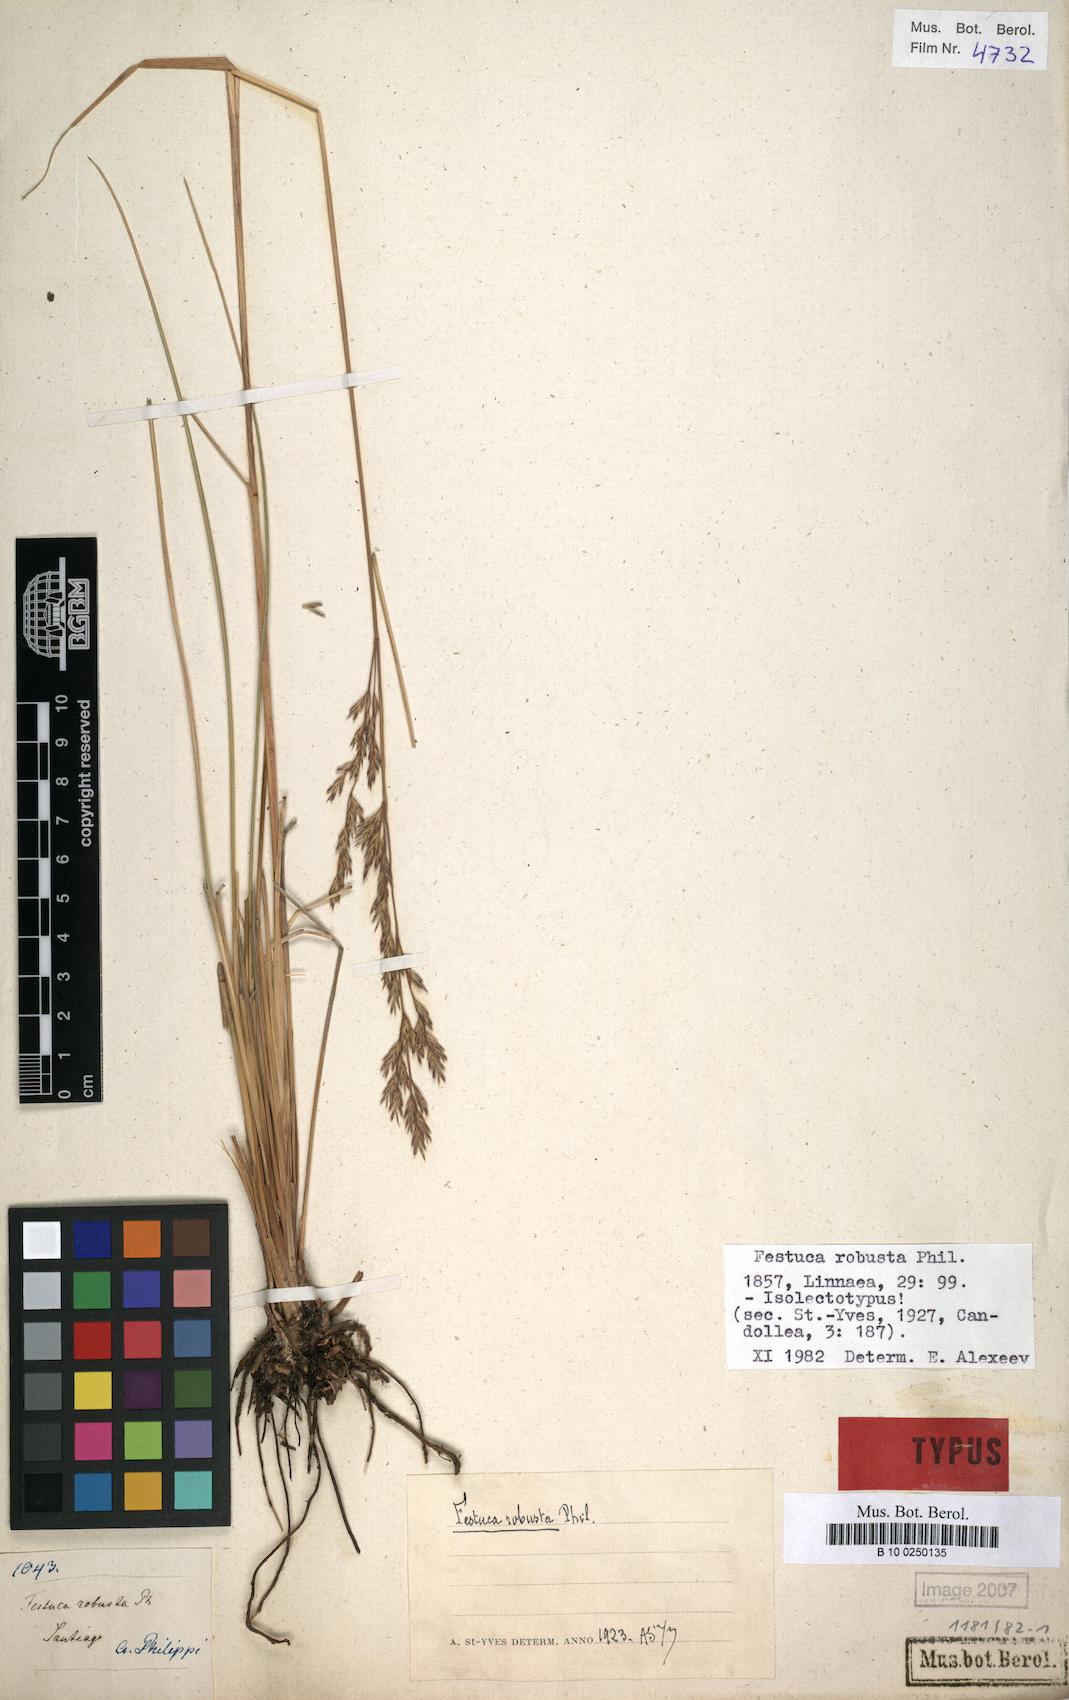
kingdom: Plantae
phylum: Tracheophyta
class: Liliopsida
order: Poales
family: Poaceae
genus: Festuca
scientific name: Festuca acanthophylla
